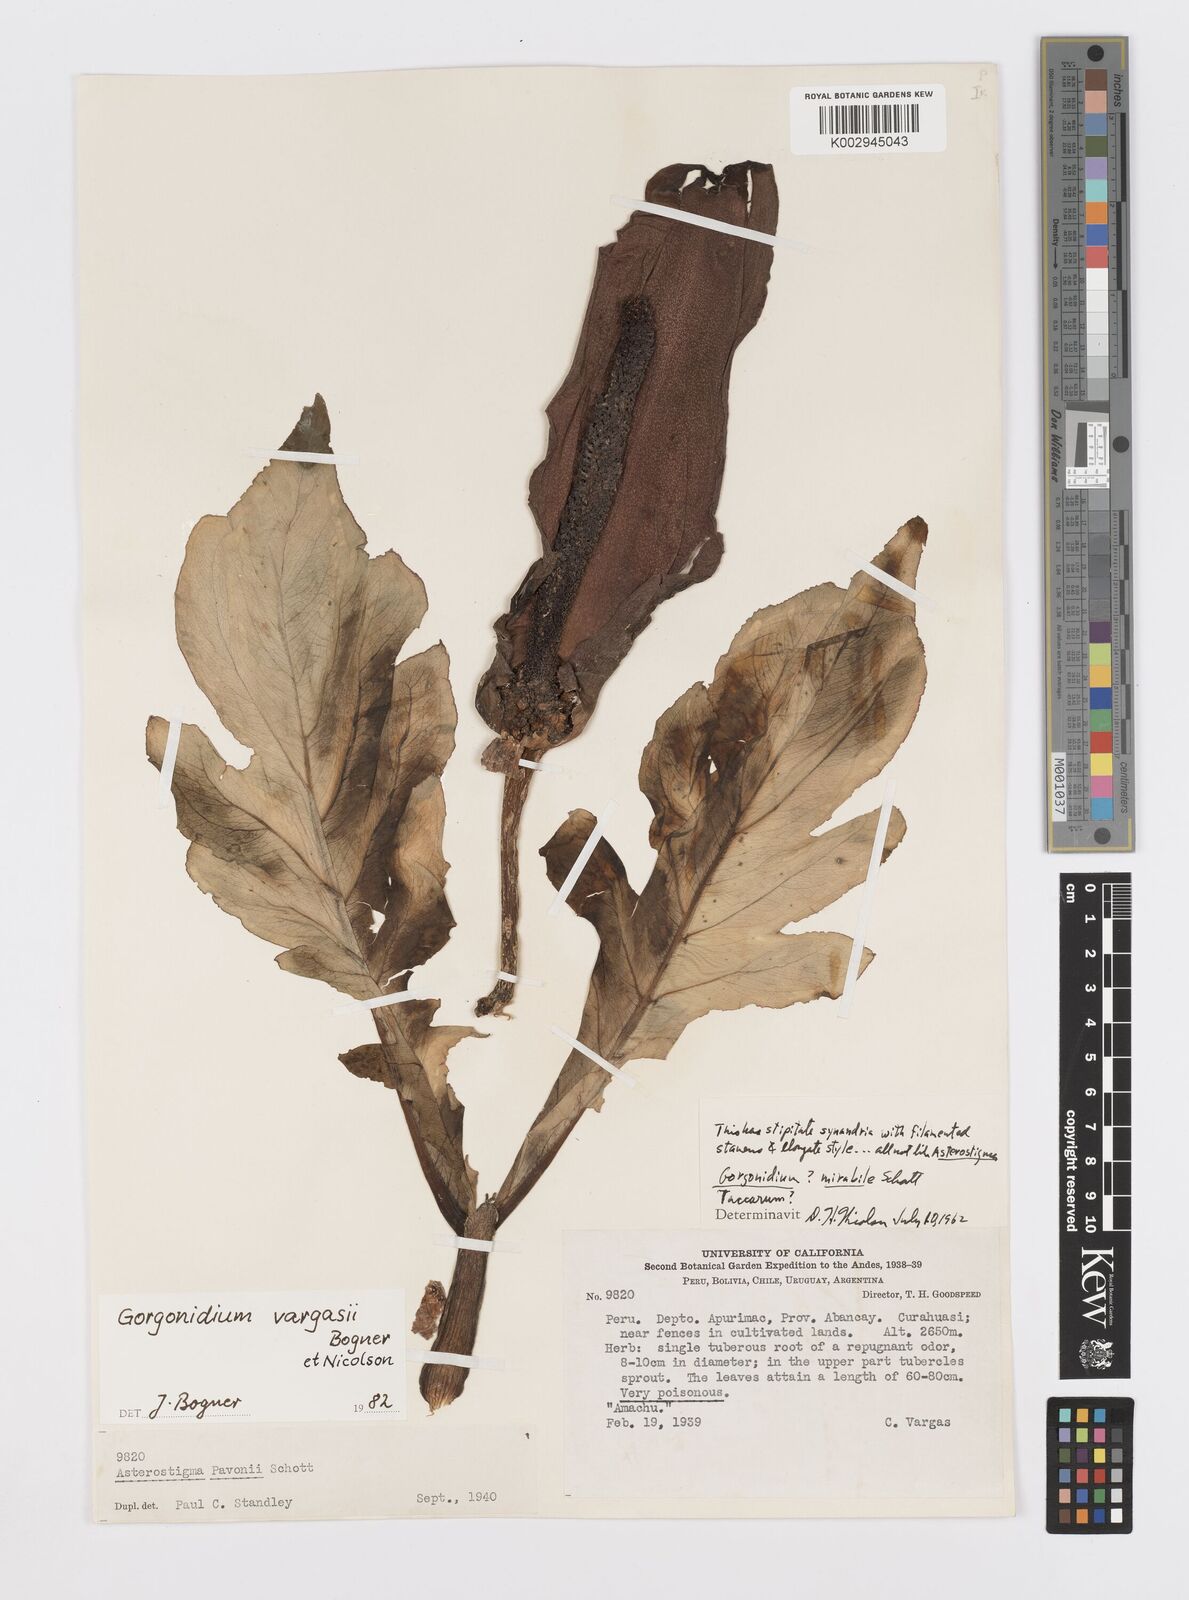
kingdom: Plantae
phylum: Tracheophyta
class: Liliopsida
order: Alismatales
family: Araceae
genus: Gorgonidium
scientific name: Gorgonidium vargasii
